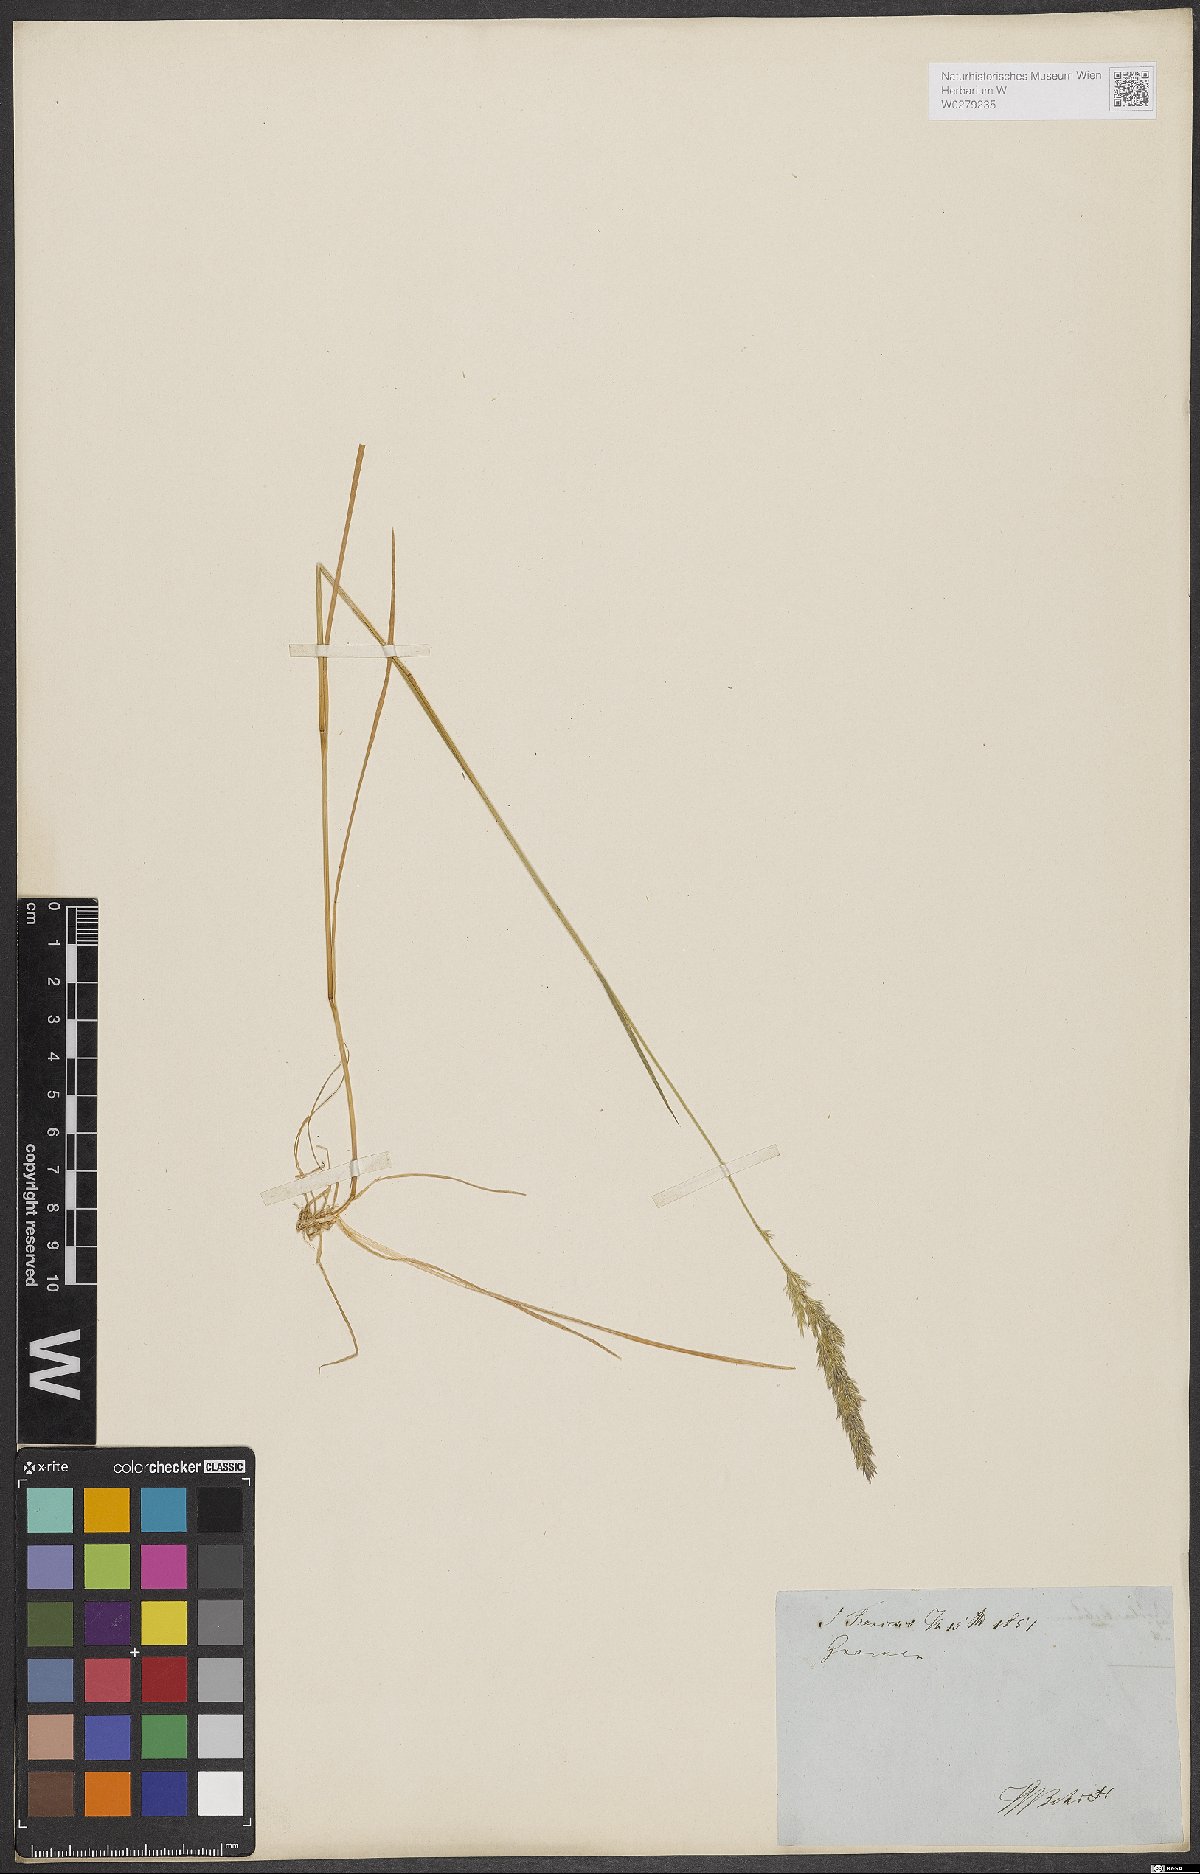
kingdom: Plantae
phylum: Tracheophyta
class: Liliopsida
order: Poales
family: Poaceae
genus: Agrostis
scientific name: Agrostis capillaris
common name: Colonial bentgrass
